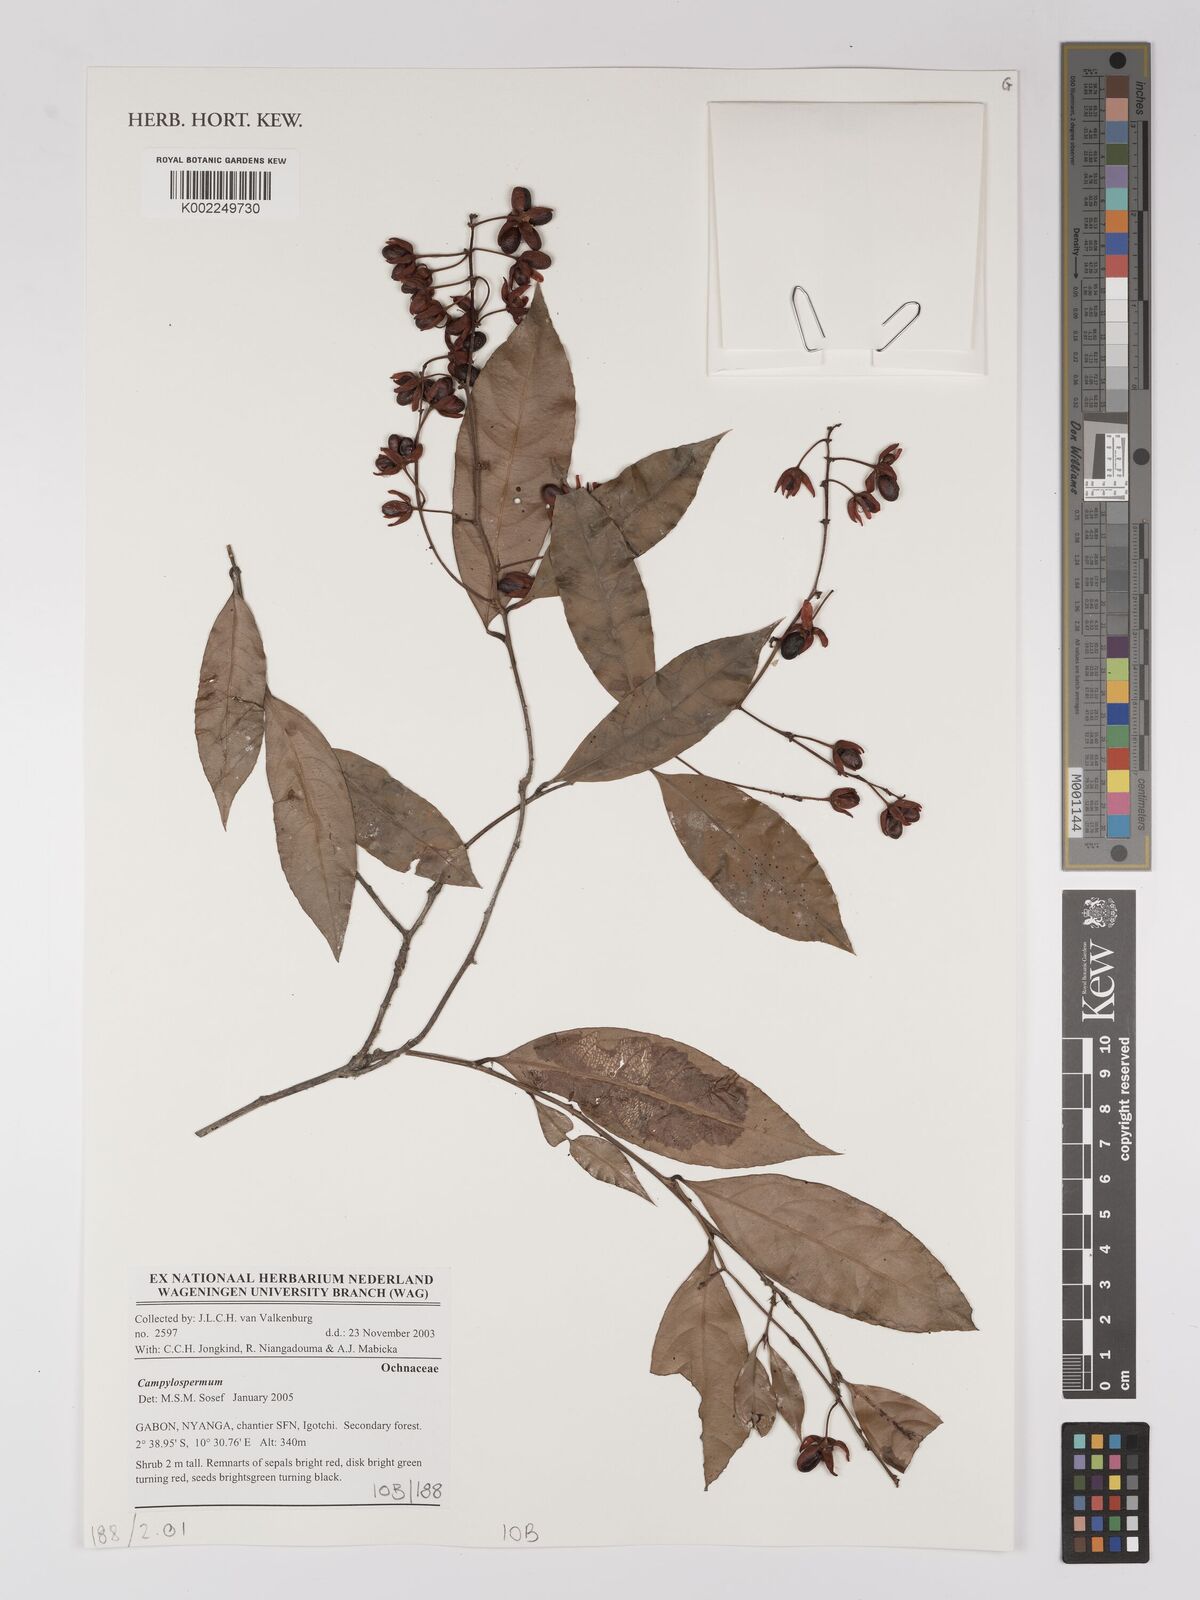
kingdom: Plantae
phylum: Tracheophyta
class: Magnoliopsida
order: Malpighiales
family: Ochnaceae
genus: Campylospermum
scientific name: Campylospermum
